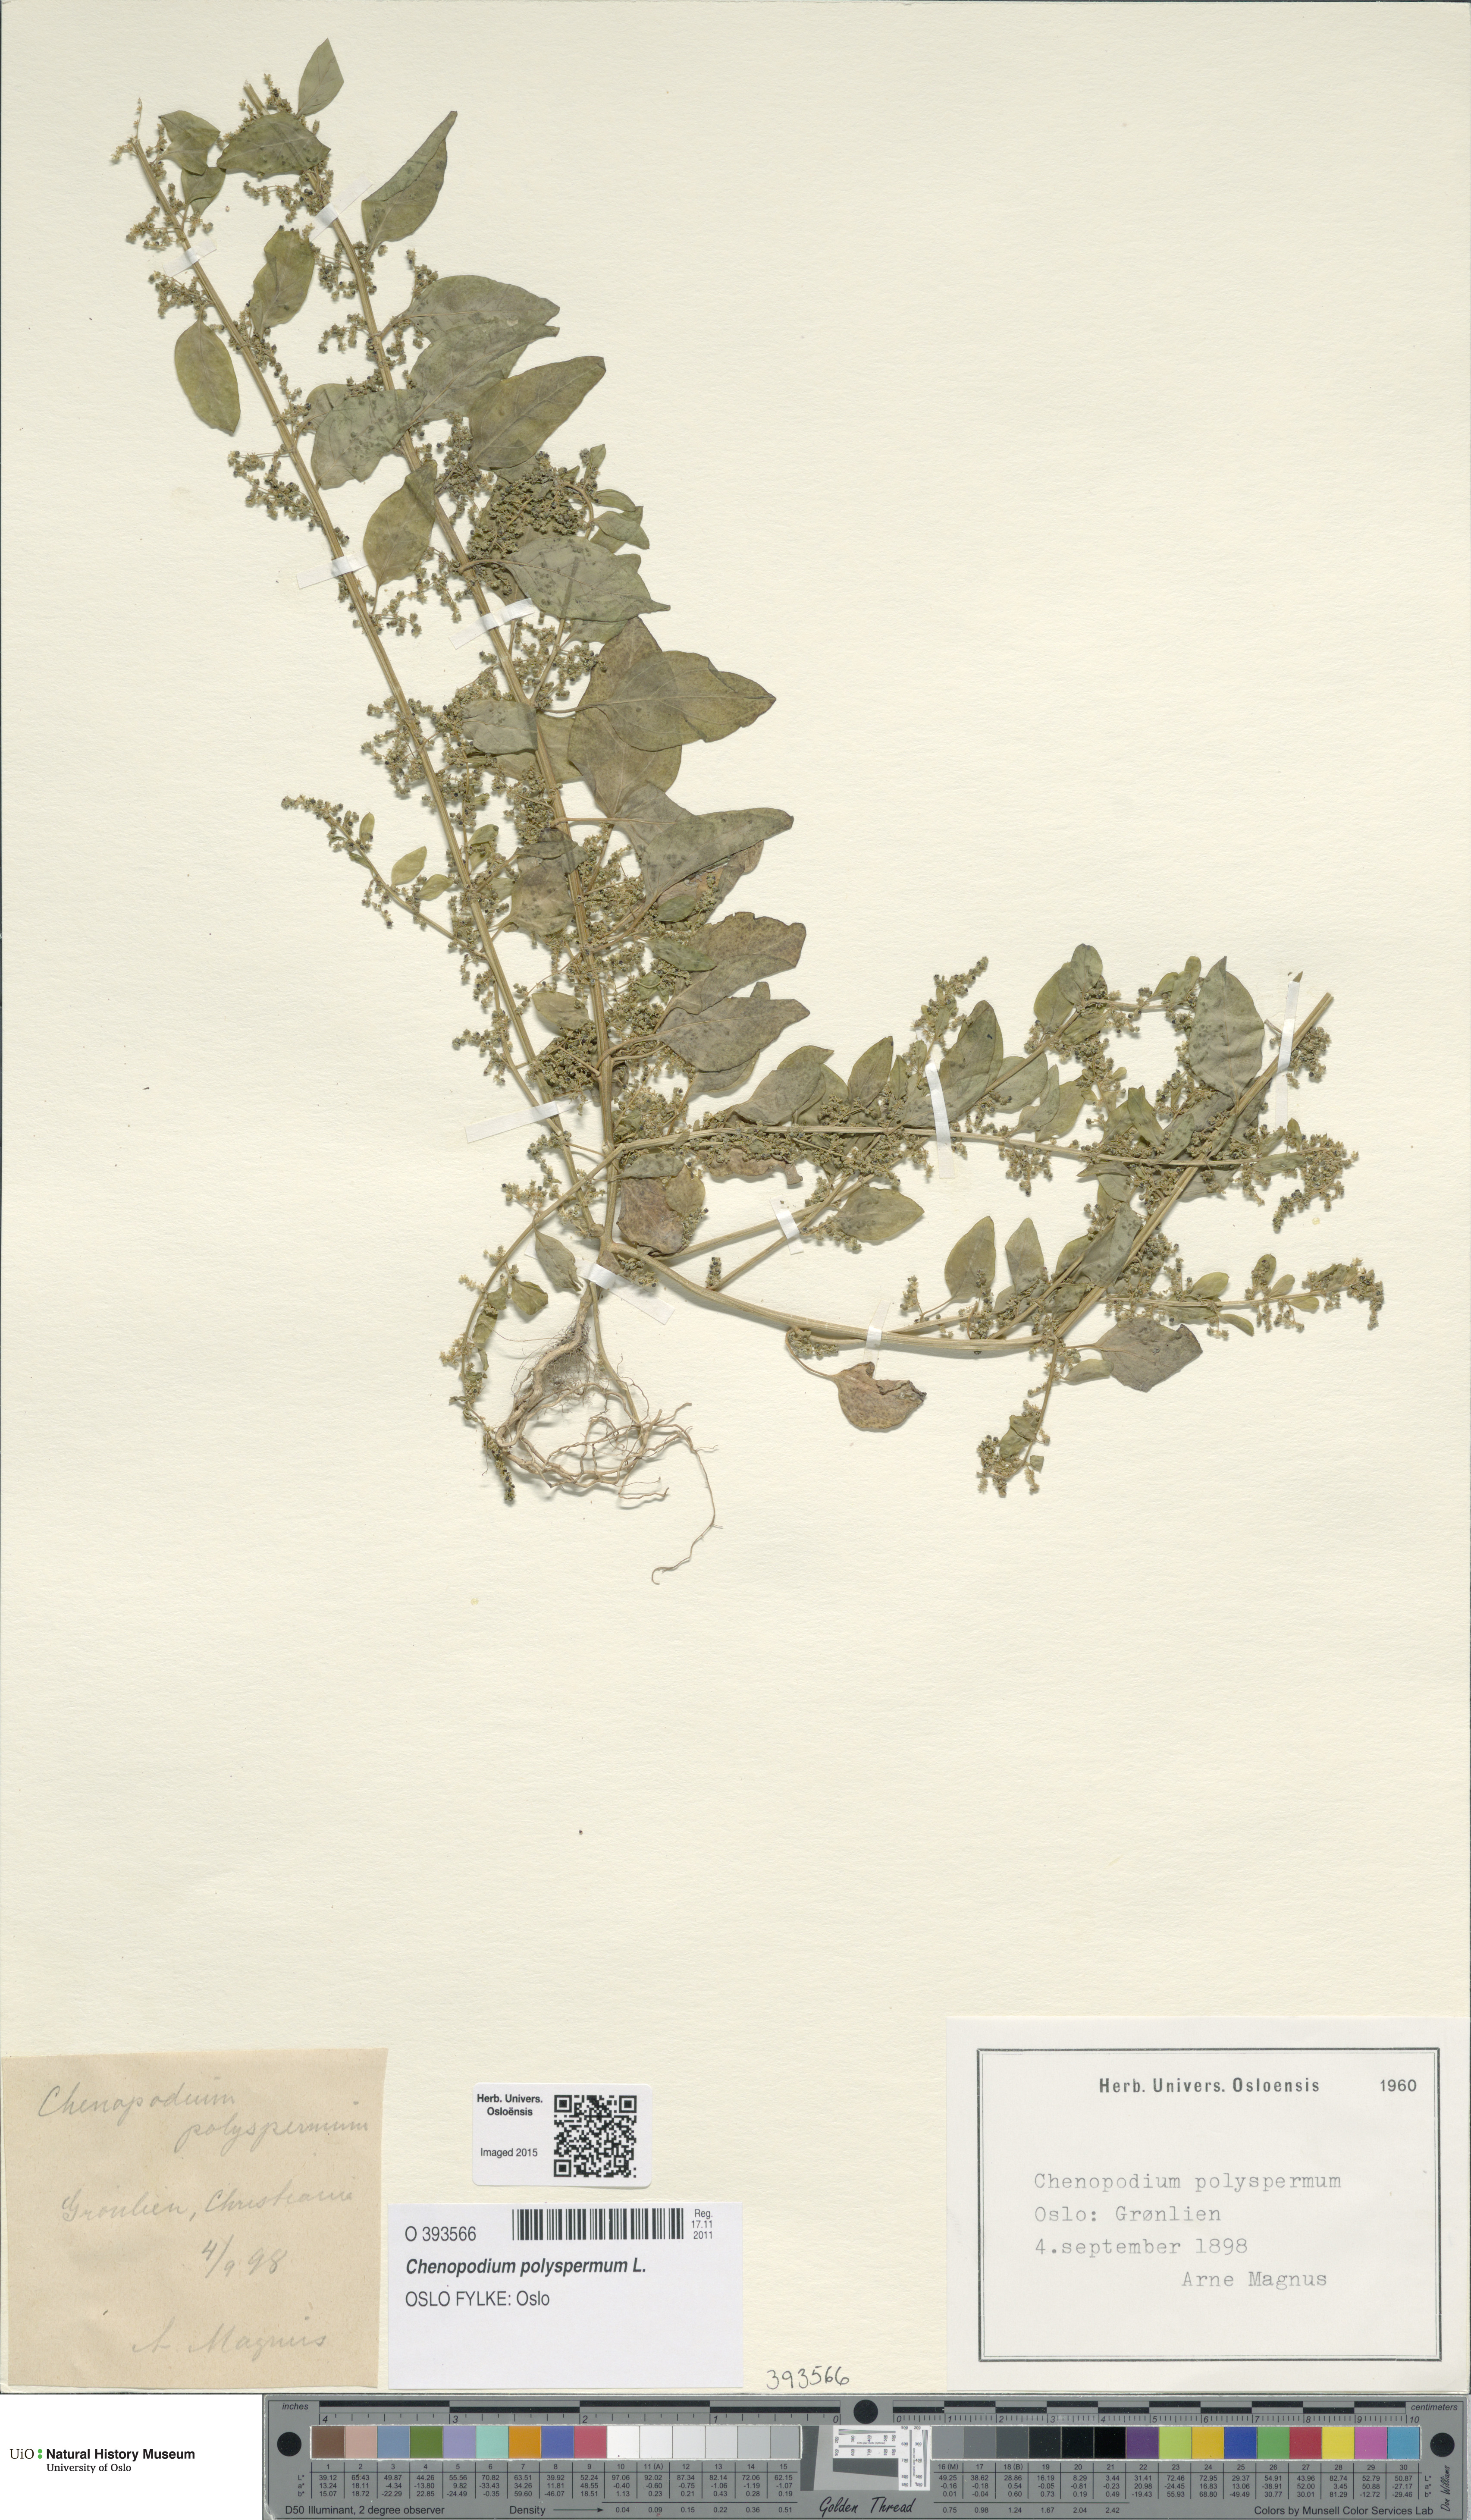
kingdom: Plantae
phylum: Tracheophyta
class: Magnoliopsida
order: Caryophyllales
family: Amaranthaceae
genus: Lipandra
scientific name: Lipandra polysperma
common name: Many-seed goosefoot
